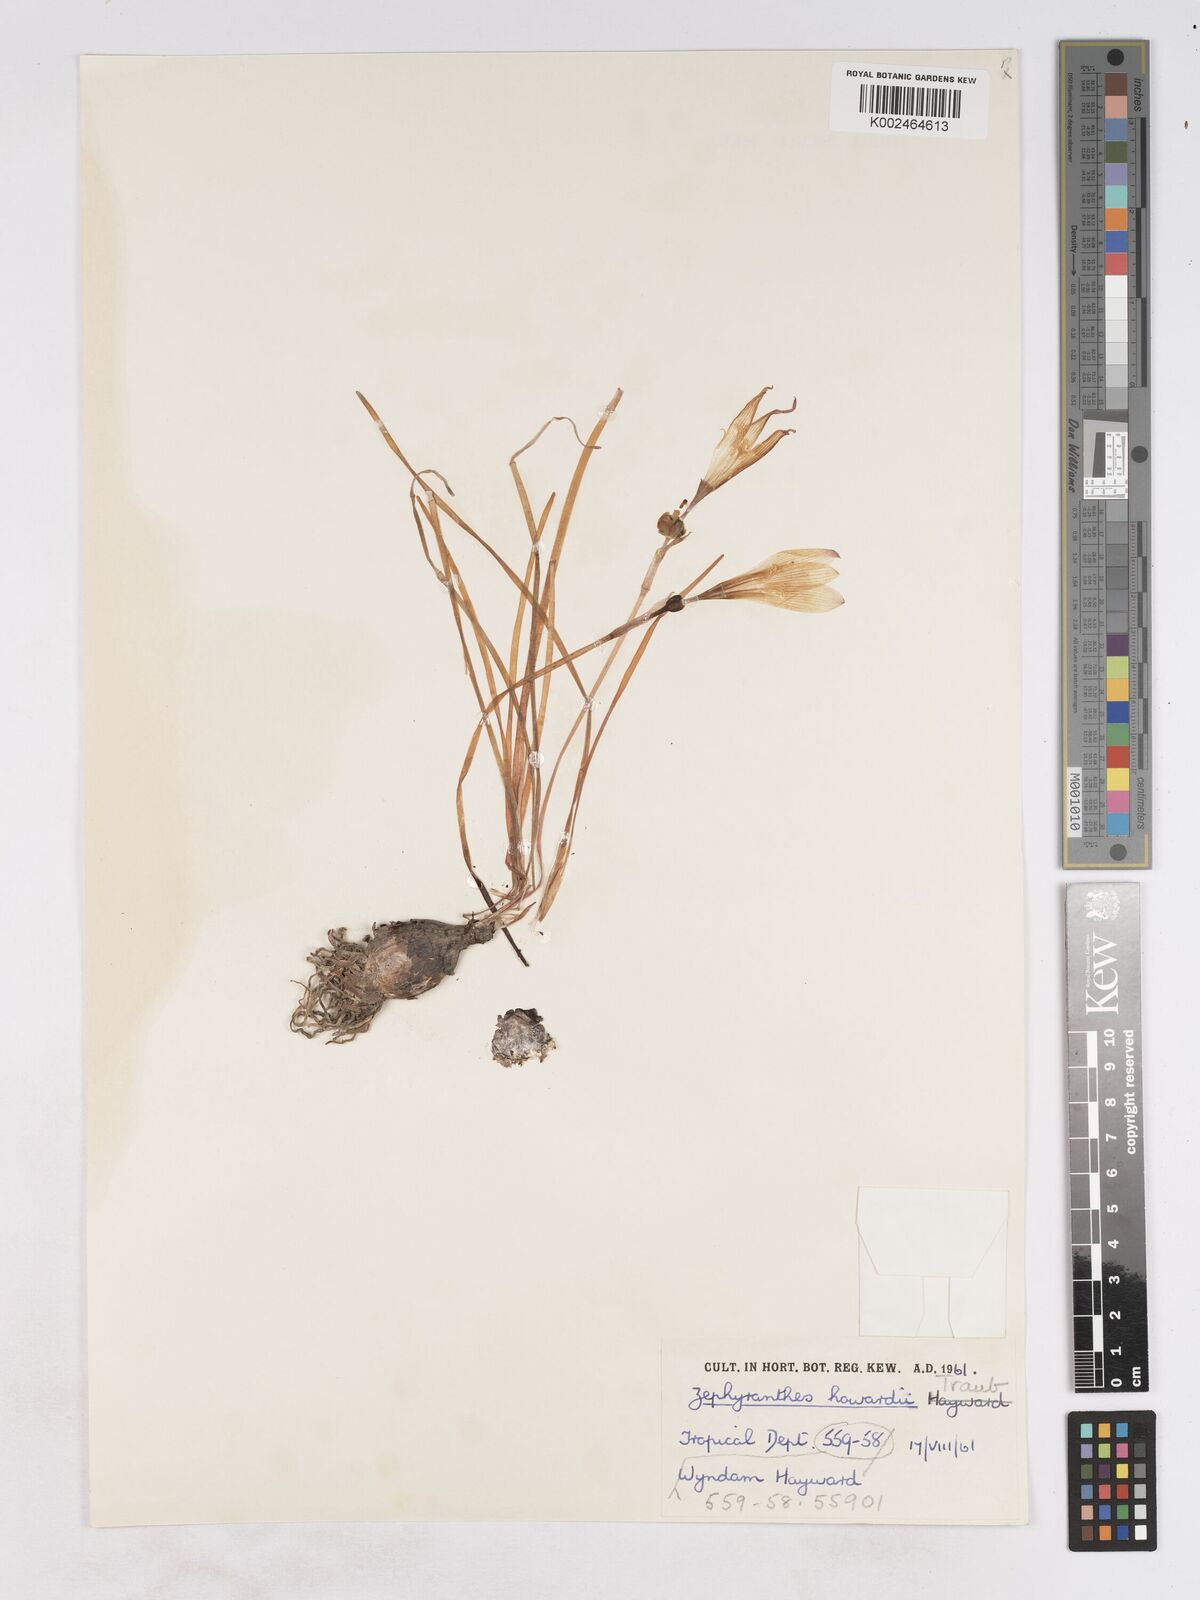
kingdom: Plantae
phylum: Tracheophyta
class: Liliopsida
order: Asparagales
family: Amaryllidaceae
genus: Zephyranthes
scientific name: Zephyranthes howardii
